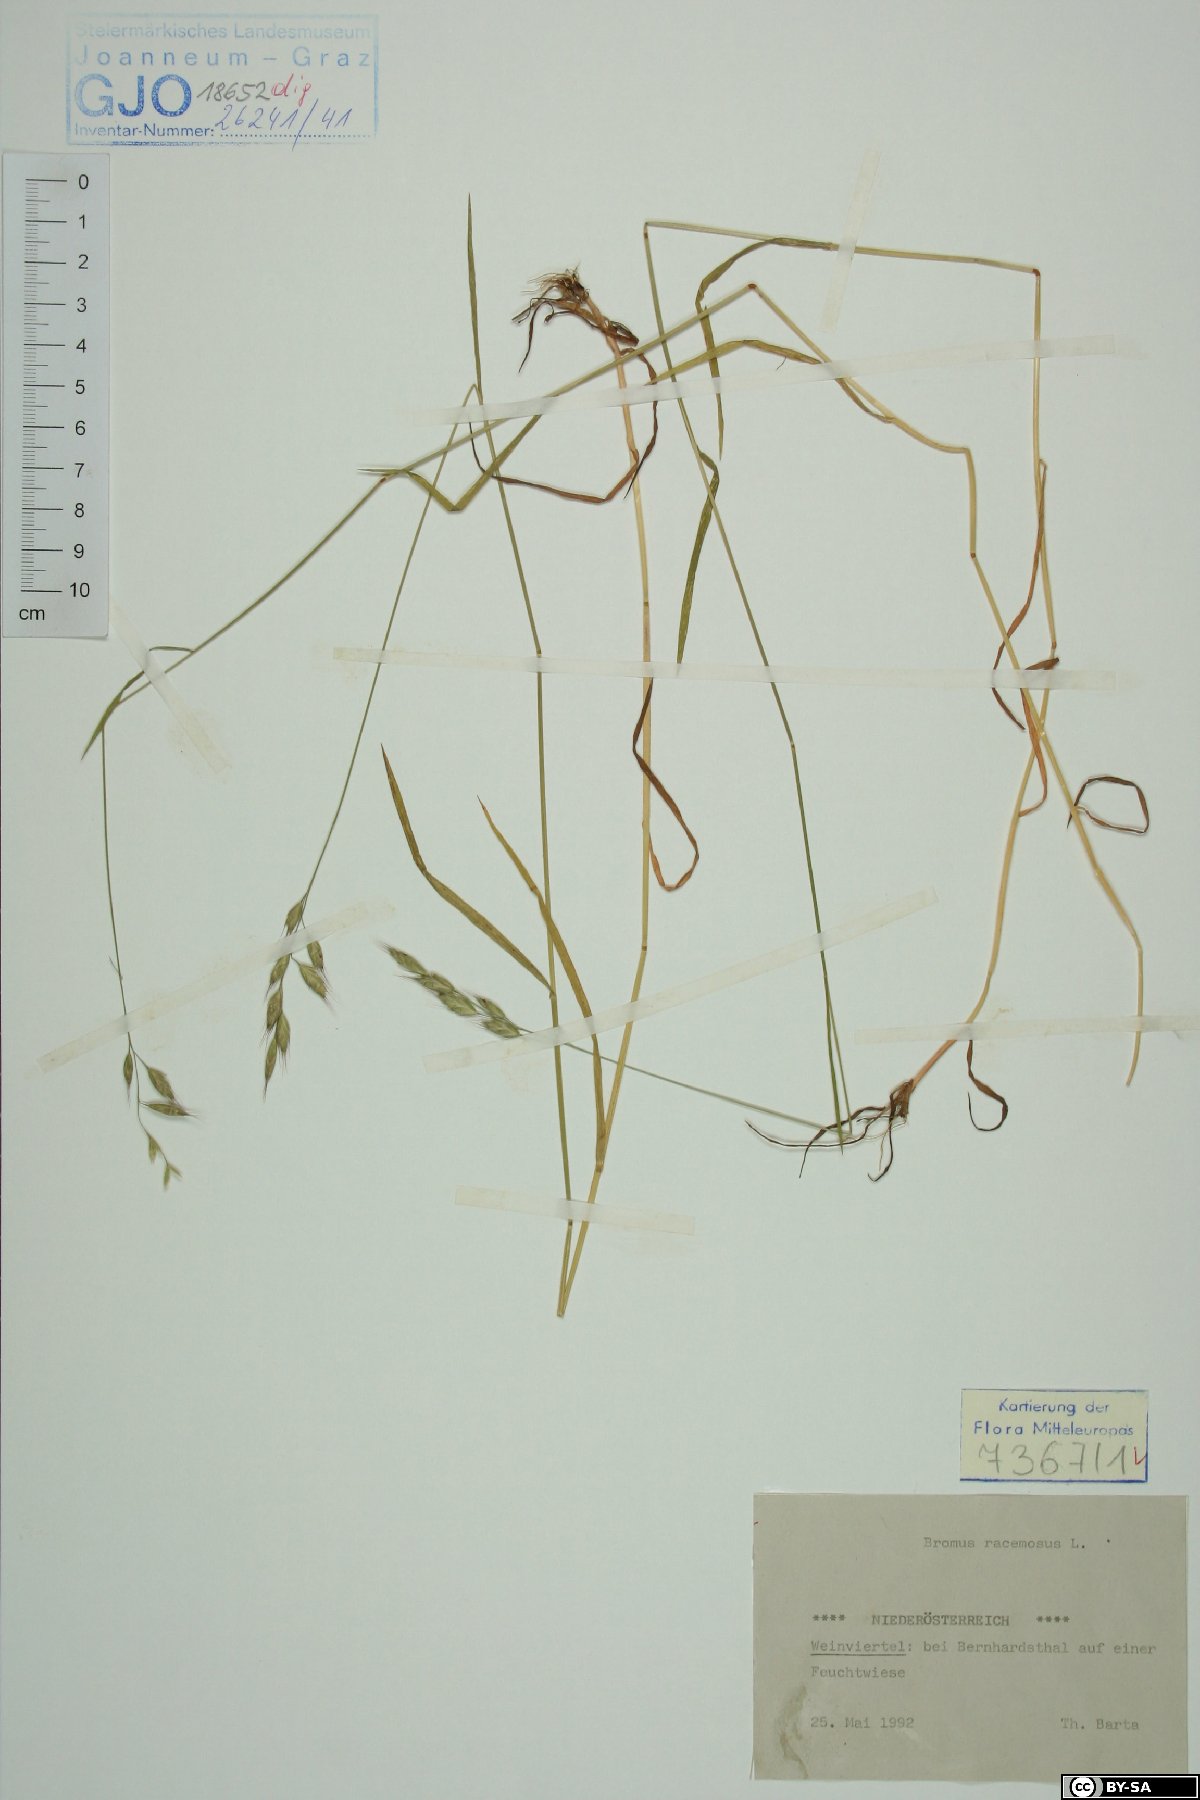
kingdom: Plantae
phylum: Tracheophyta
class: Liliopsida
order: Poales
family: Poaceae
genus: Bromus
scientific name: Bromus racemosus
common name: Bald brome
